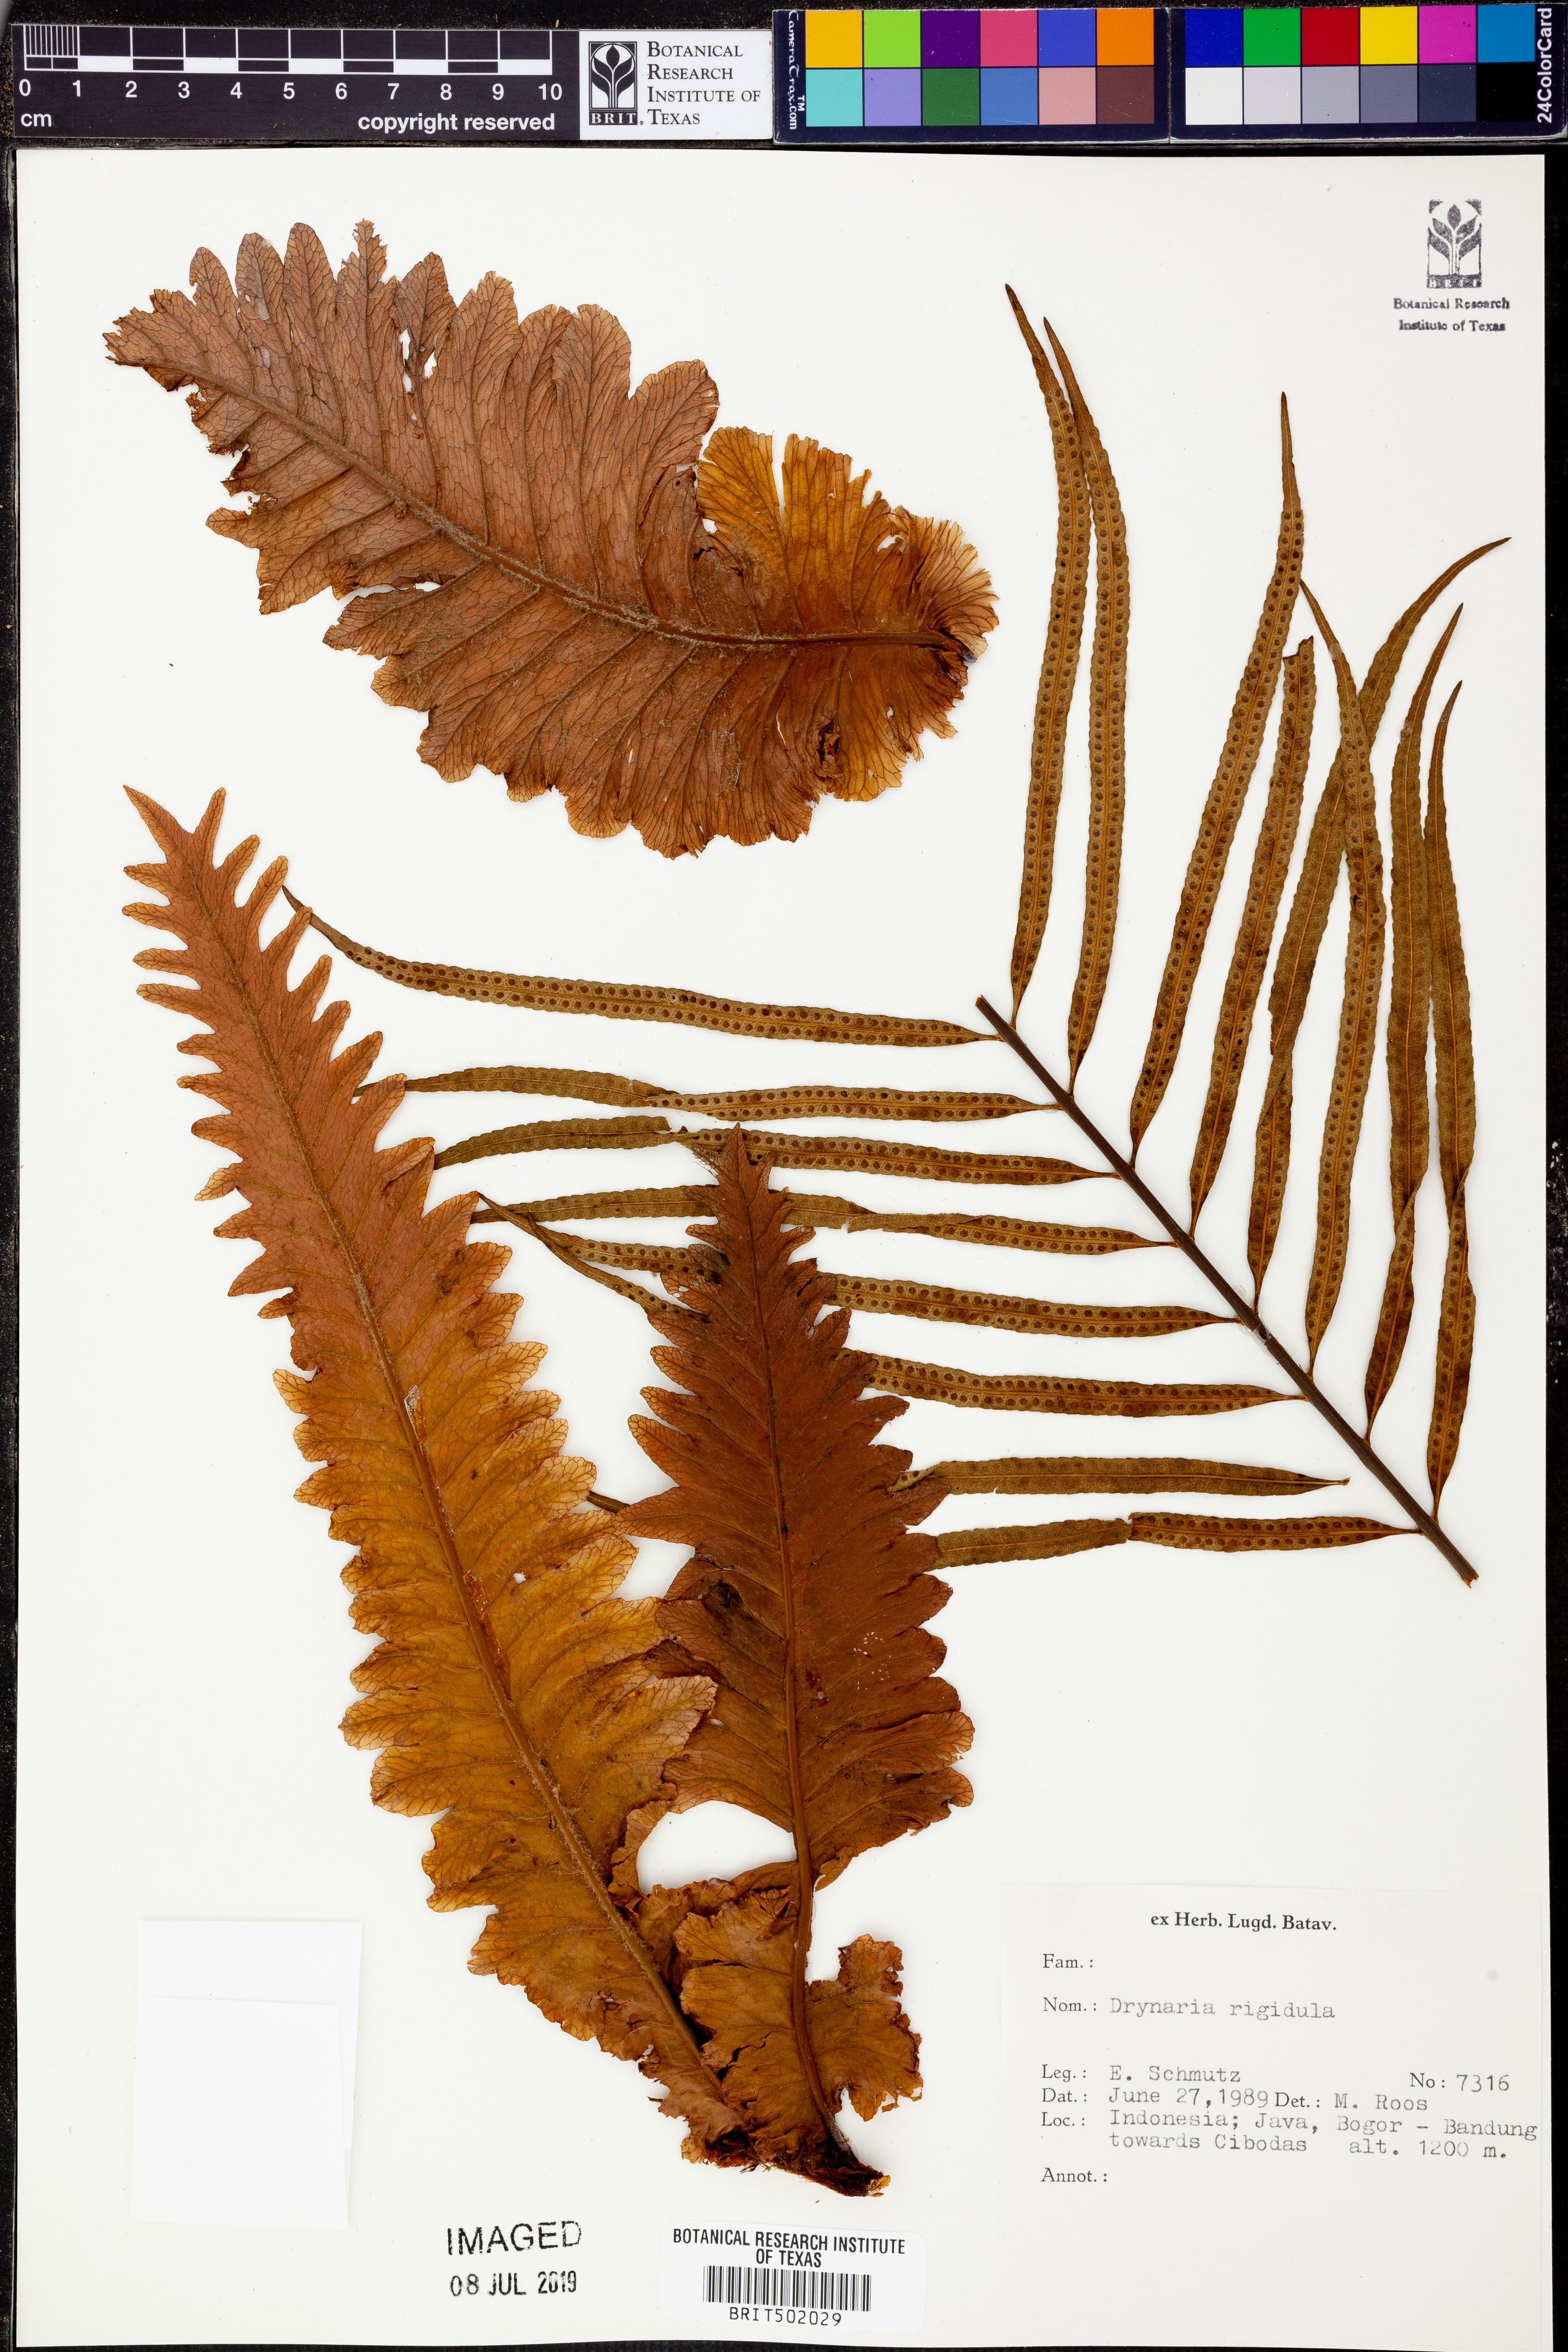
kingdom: Plantae
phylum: Tracheophyta
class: Polypodiopsida
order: Polypodiales
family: Polypodiaceae
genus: Drynaria
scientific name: Drynaria rigidula
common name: Basket fern
